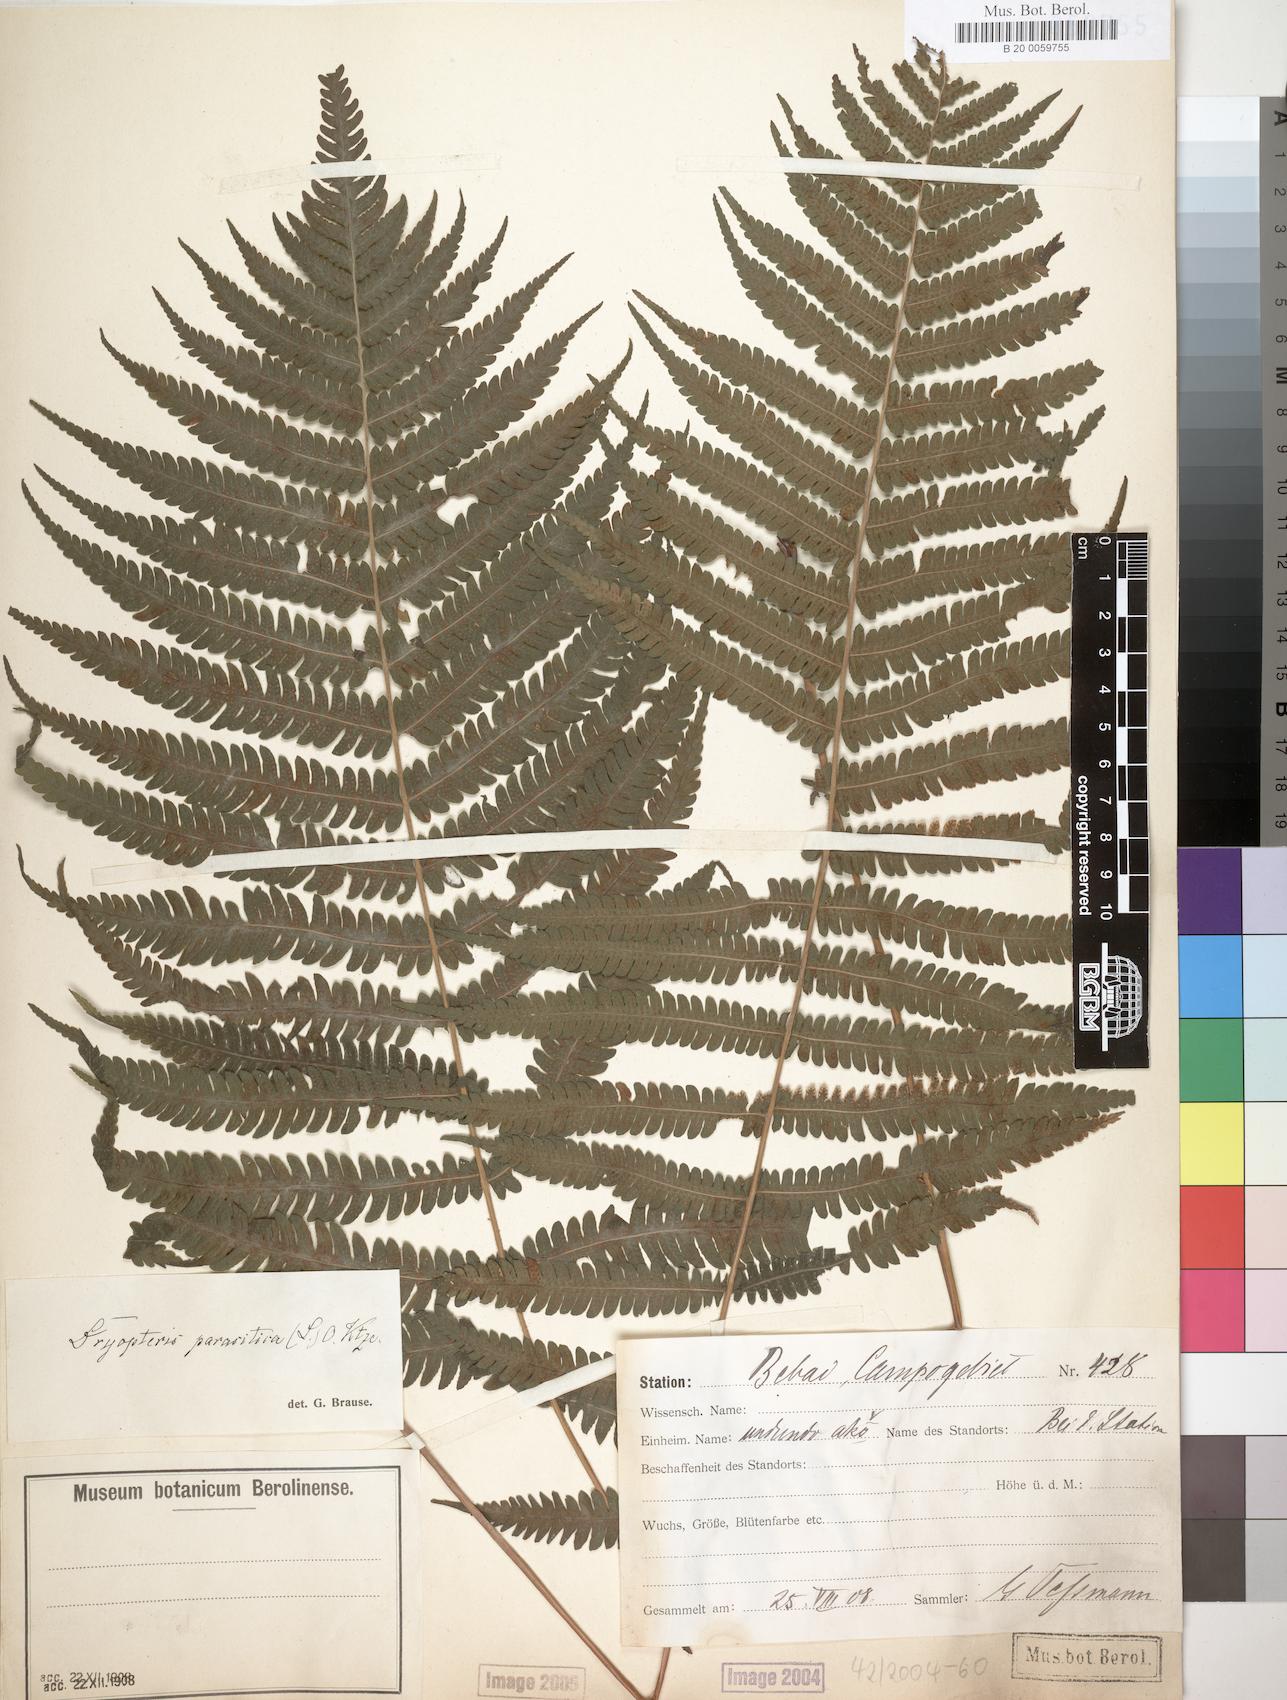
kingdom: Plantae
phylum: Tracheophyta
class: Polypodiopsida
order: Polypodiales
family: Thelypteridaceae
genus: Christella
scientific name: Christella dentata
